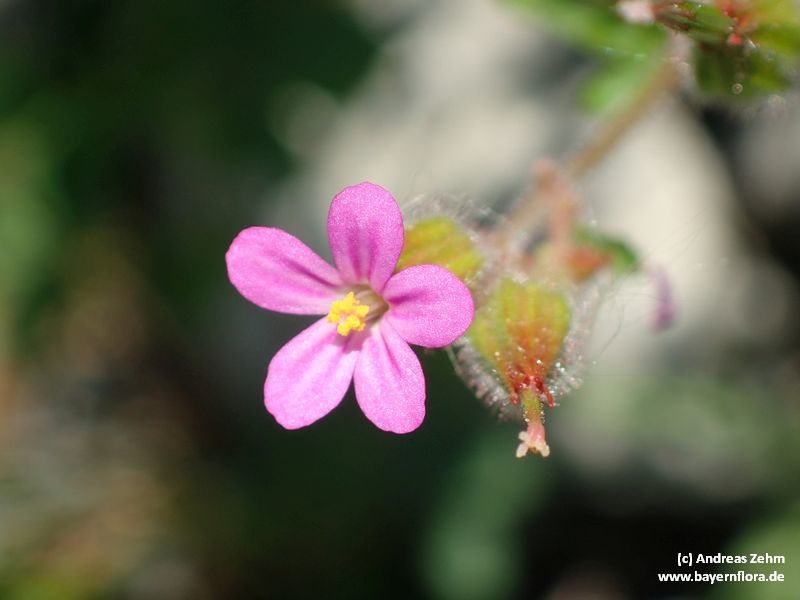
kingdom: Plantae
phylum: Tracheophyta
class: Magnoliopsida
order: Geraniales
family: Geraniaceae
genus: Geranium
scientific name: Geranium purpureum
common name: Little-robin
